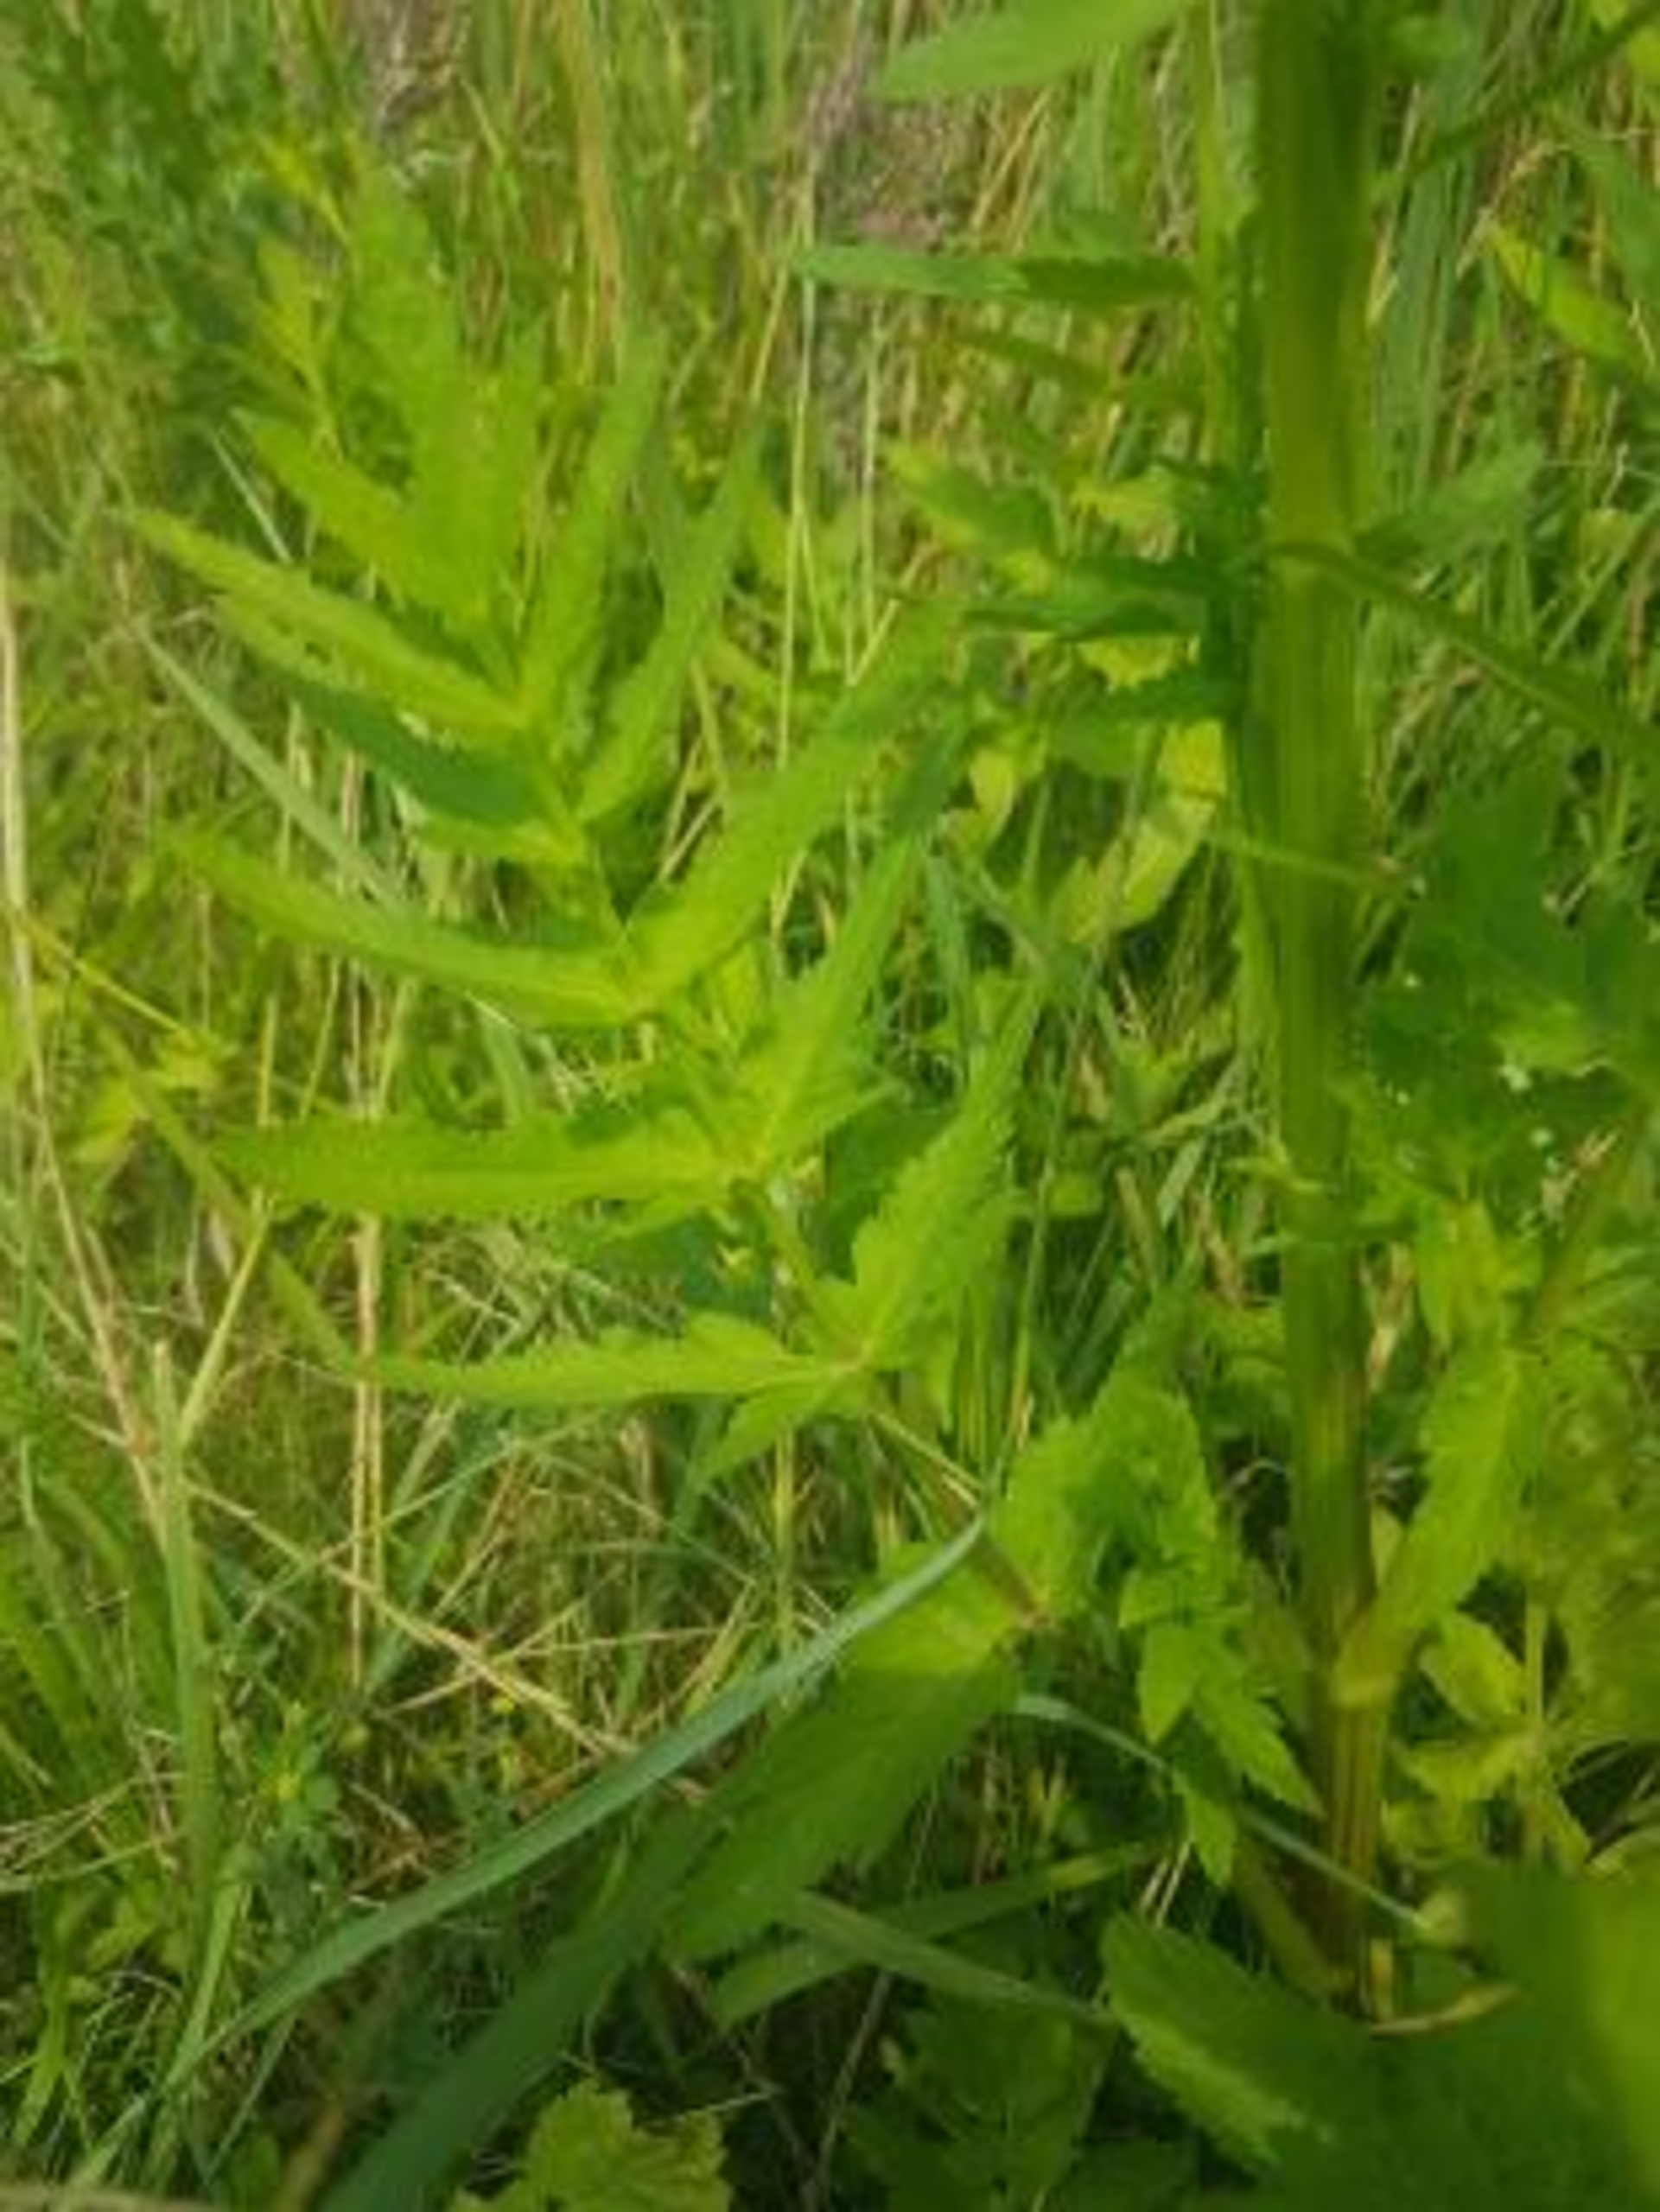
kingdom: Plantae
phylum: Tracheophyta
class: Magnoliopsida
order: Apiales
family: Apiaceae
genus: Pastinaca
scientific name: Pastinaca sativa
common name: Pastinak
